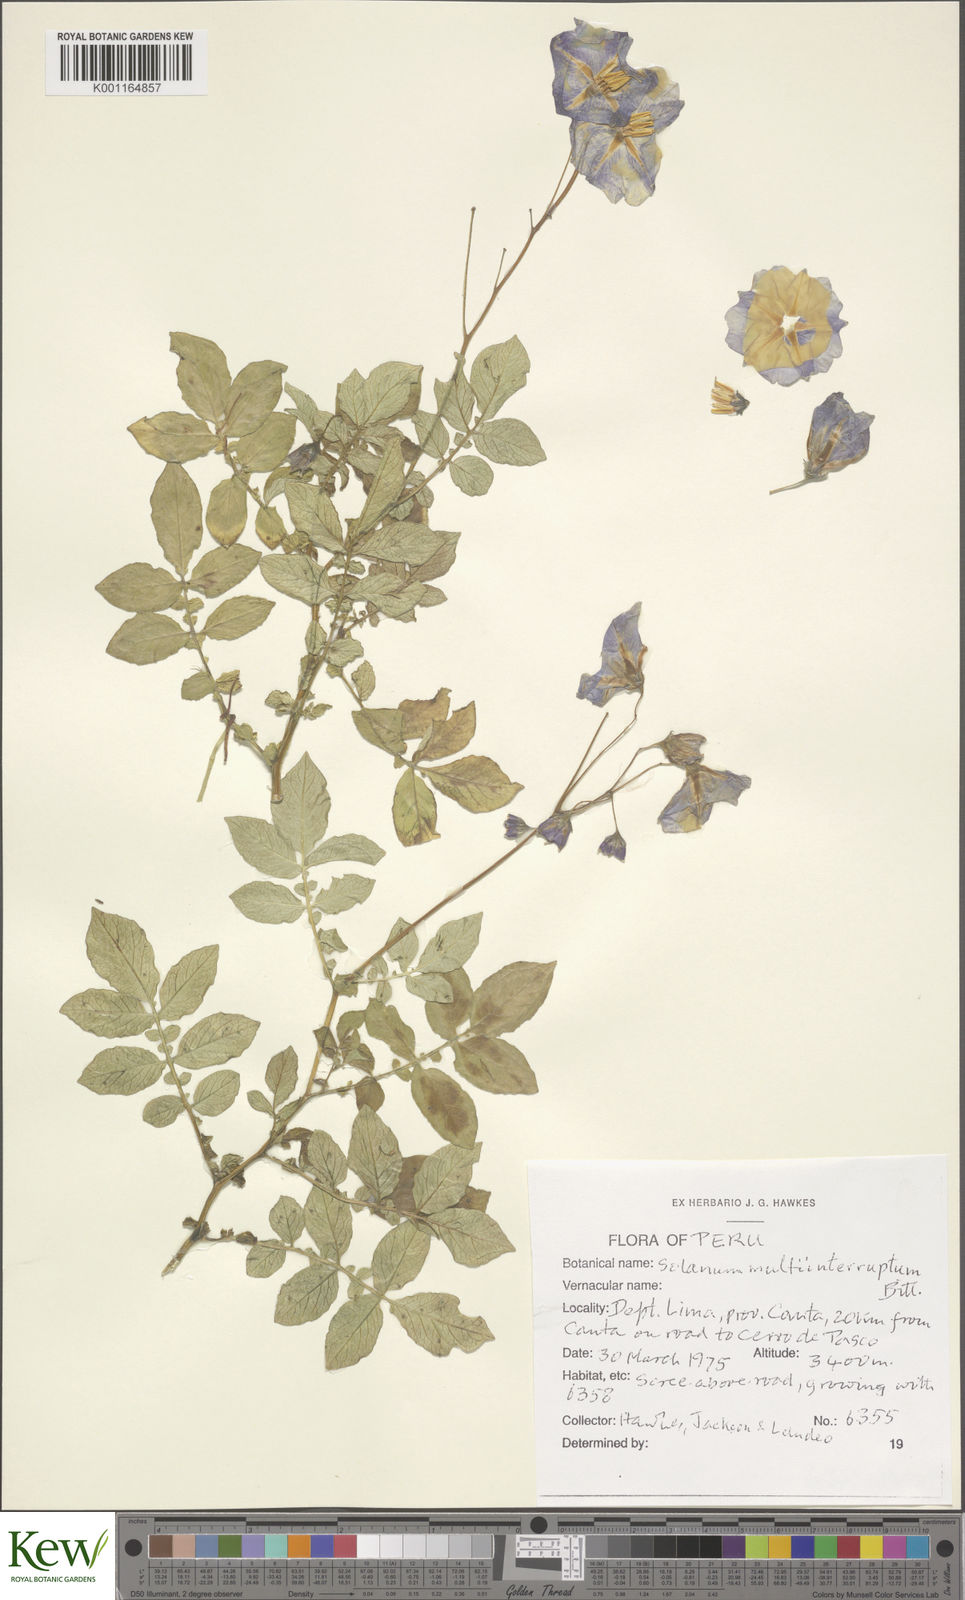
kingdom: Plantae
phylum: Tracheophyta
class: Magnoliopsida
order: Solanales
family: Solanaceae
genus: Solanum
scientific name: Solanum multiinterruptum
